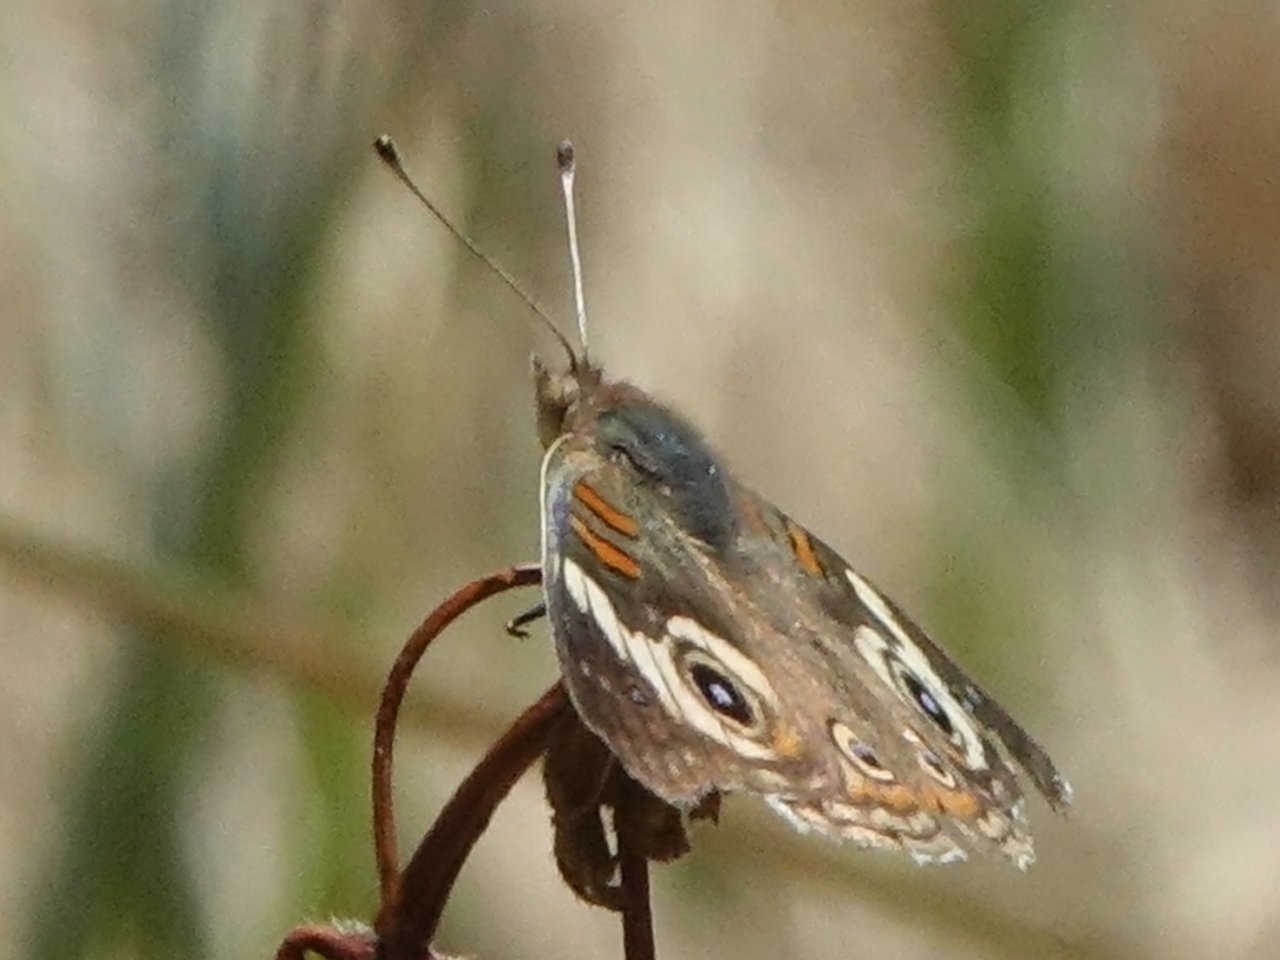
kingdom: Animalia
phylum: Arthropoda
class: Insecta
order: Lepidoptera
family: Nymphalidae
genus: Junonia
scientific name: Junonia coenia
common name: Common Buckeye
